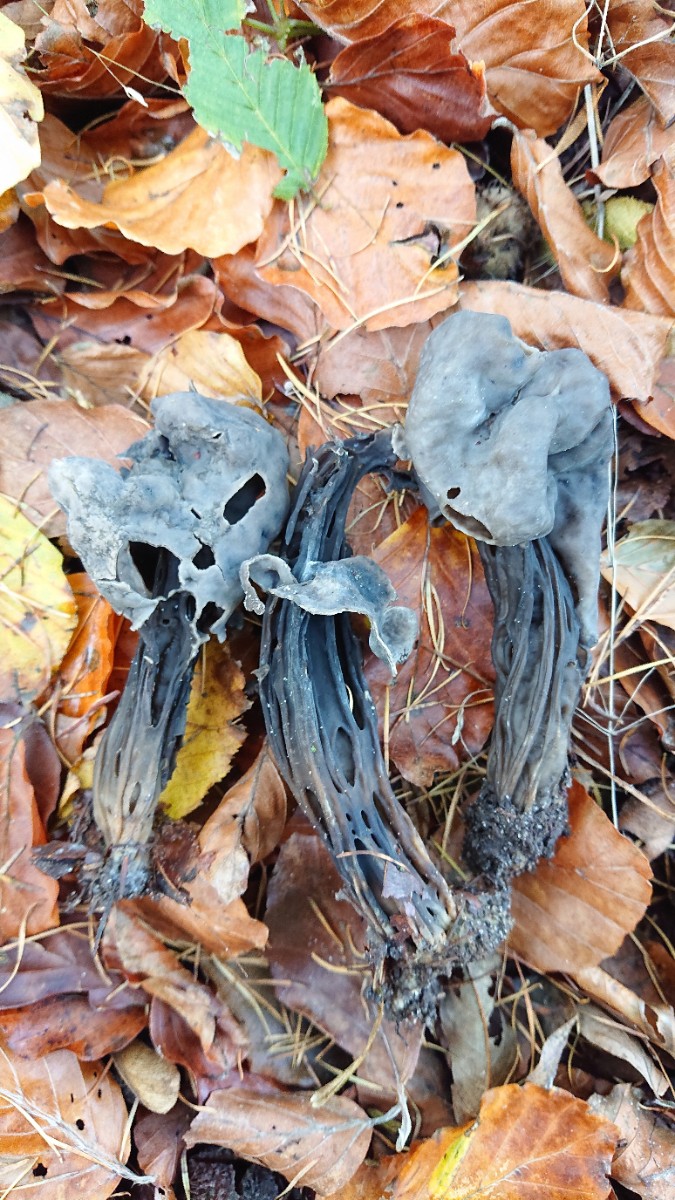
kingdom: Fungi
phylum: Ascomycota
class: Pezizomycetes
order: Pezizales
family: Helvellaceae
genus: Helvella
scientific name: Helvella lacunosa
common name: grubet foldhat
